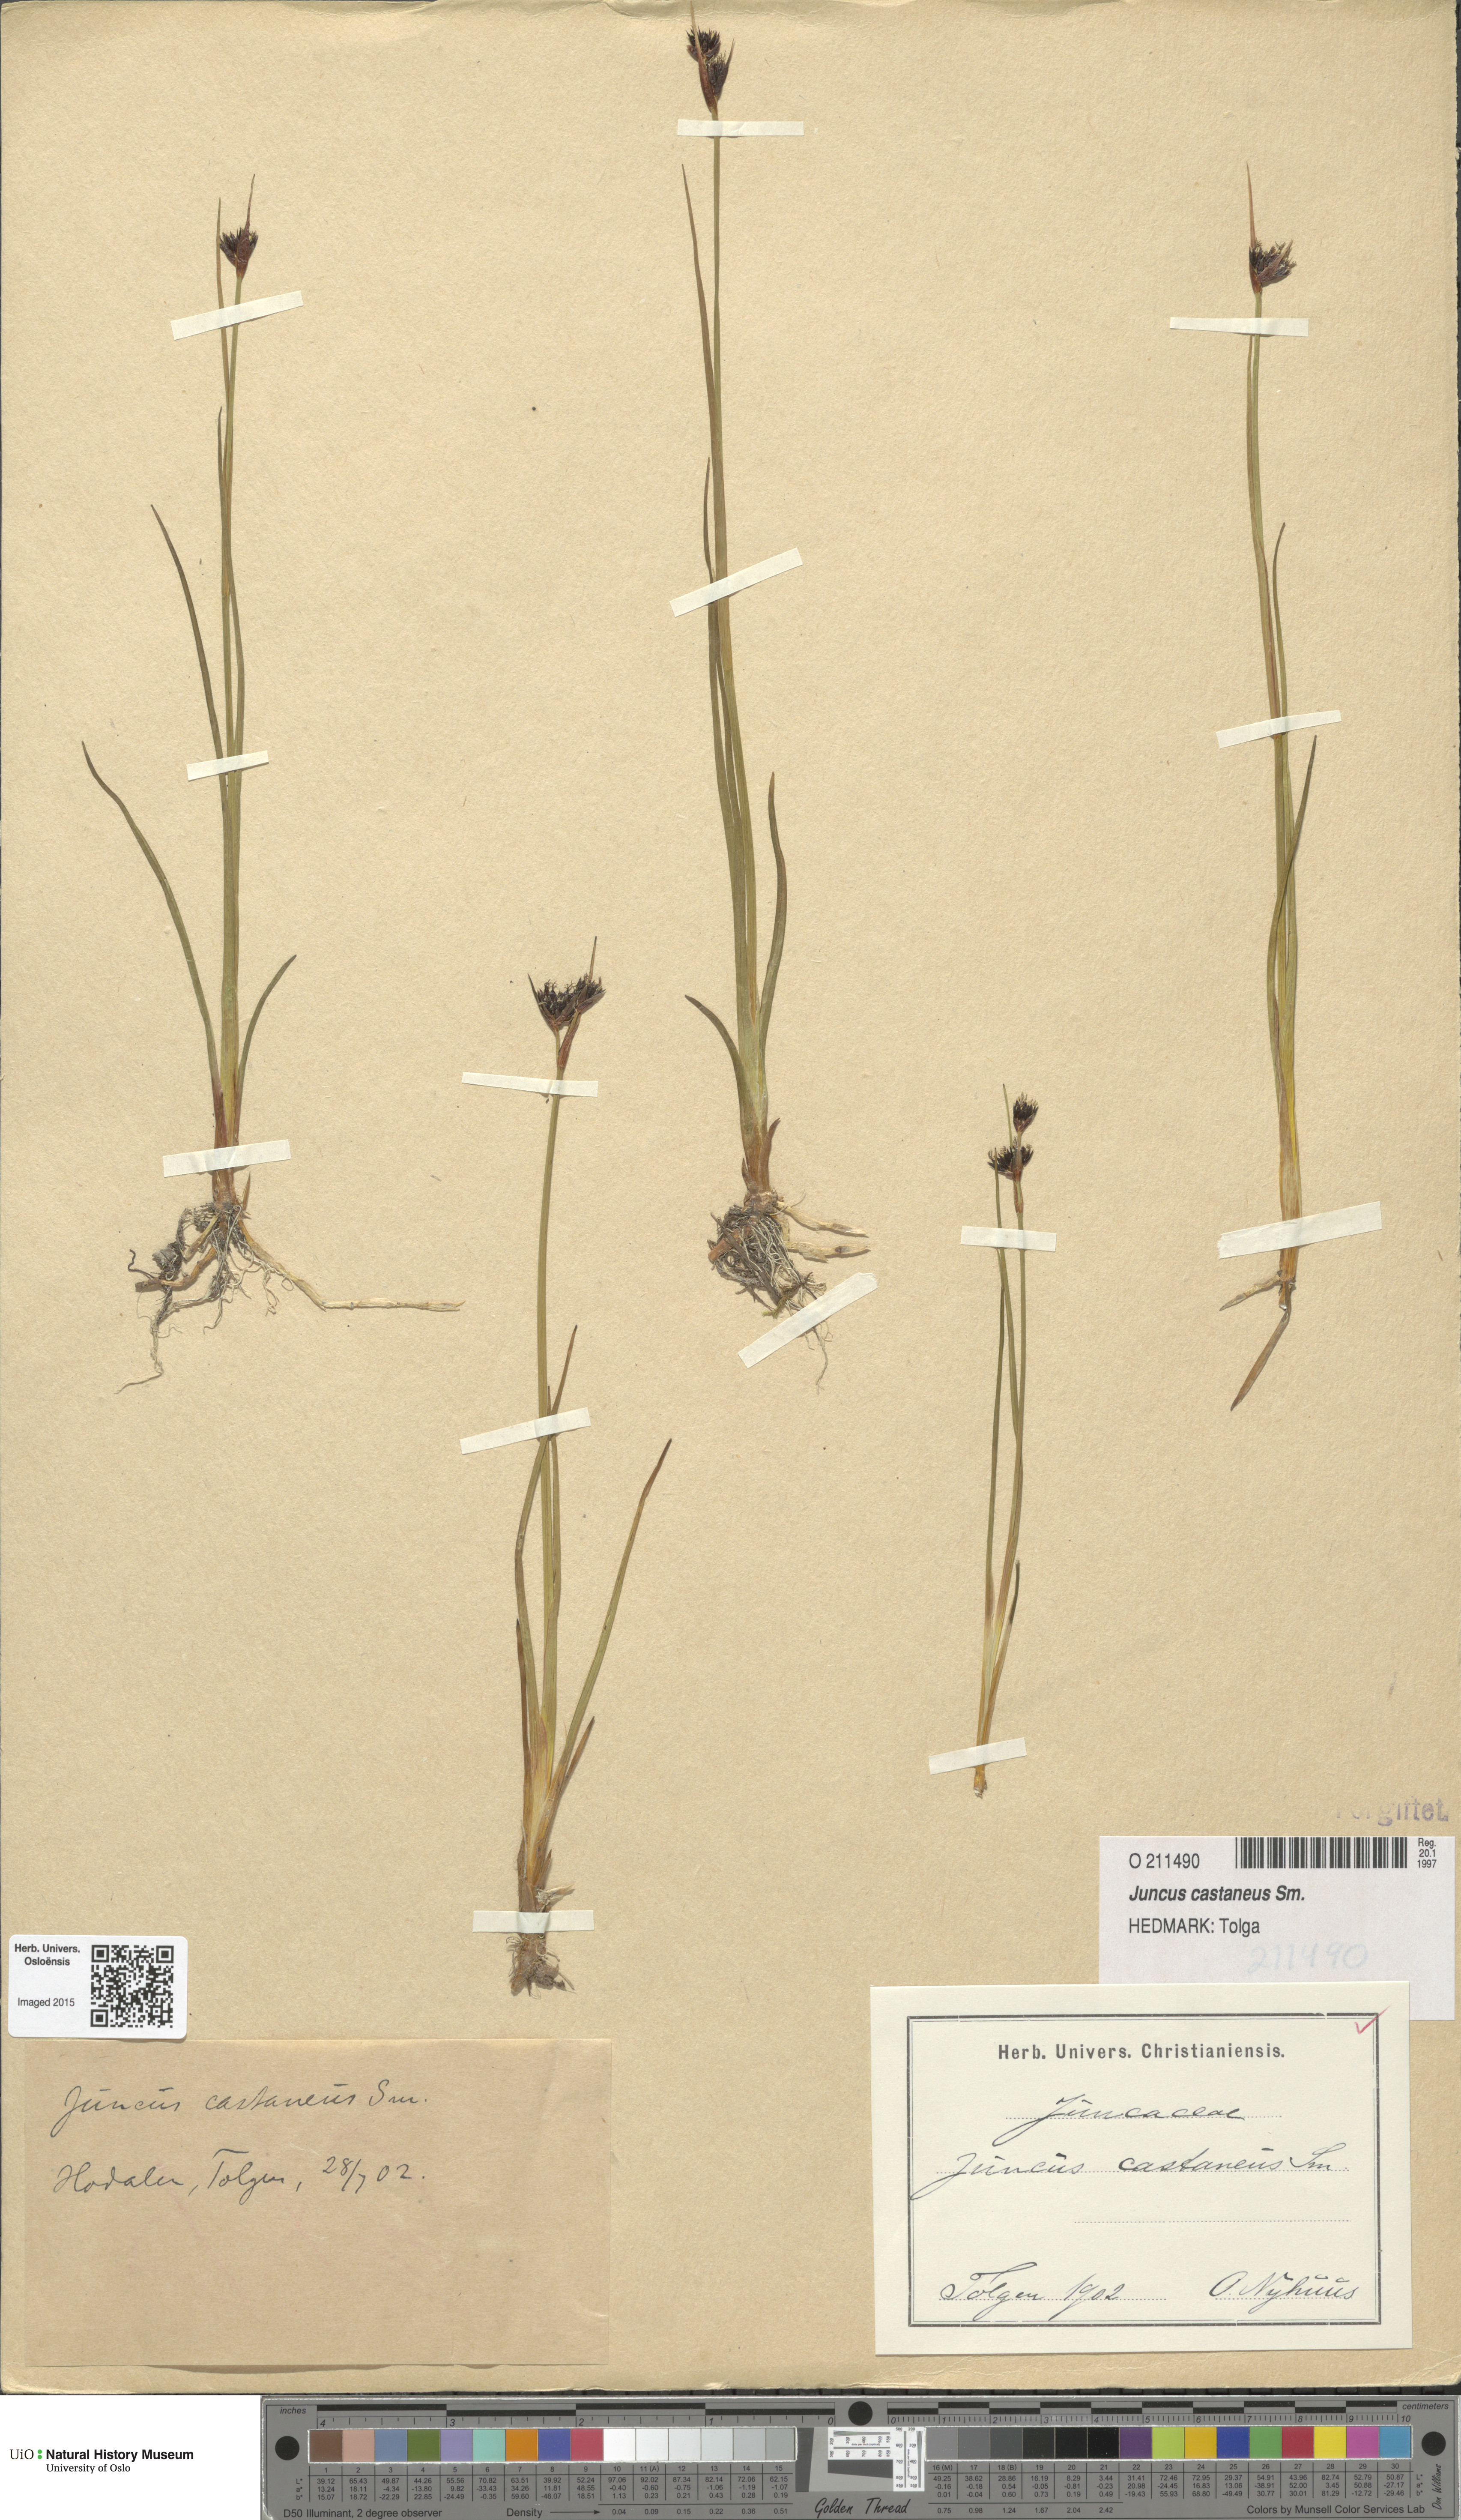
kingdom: Plantae
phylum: Tracheophyta
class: Liliopsida
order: Poales
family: Juncaceae
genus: Juncus
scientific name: Juncus castaneus
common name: Chestnut rush
